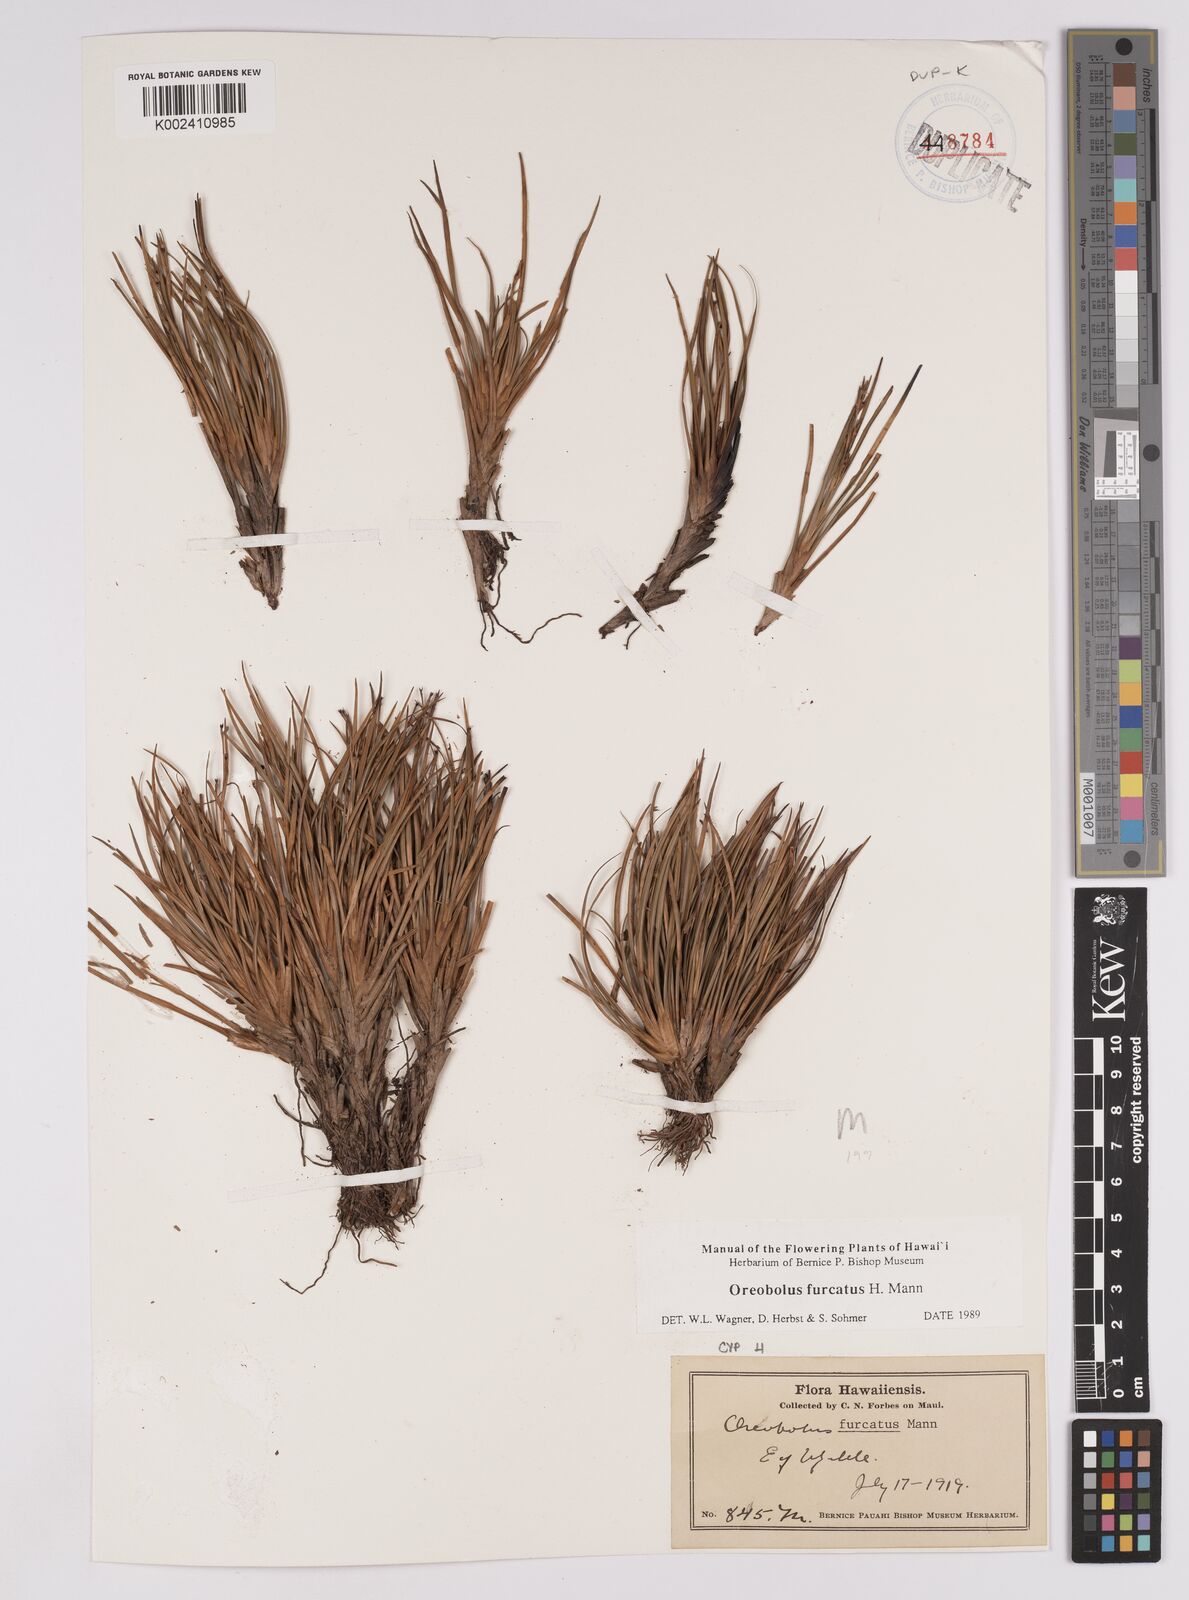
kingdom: Plantae
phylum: Tracheophyta
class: Liliopsida
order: Poales
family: Cyperaceae
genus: Oreobolus
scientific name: Oreobolus furcatus
